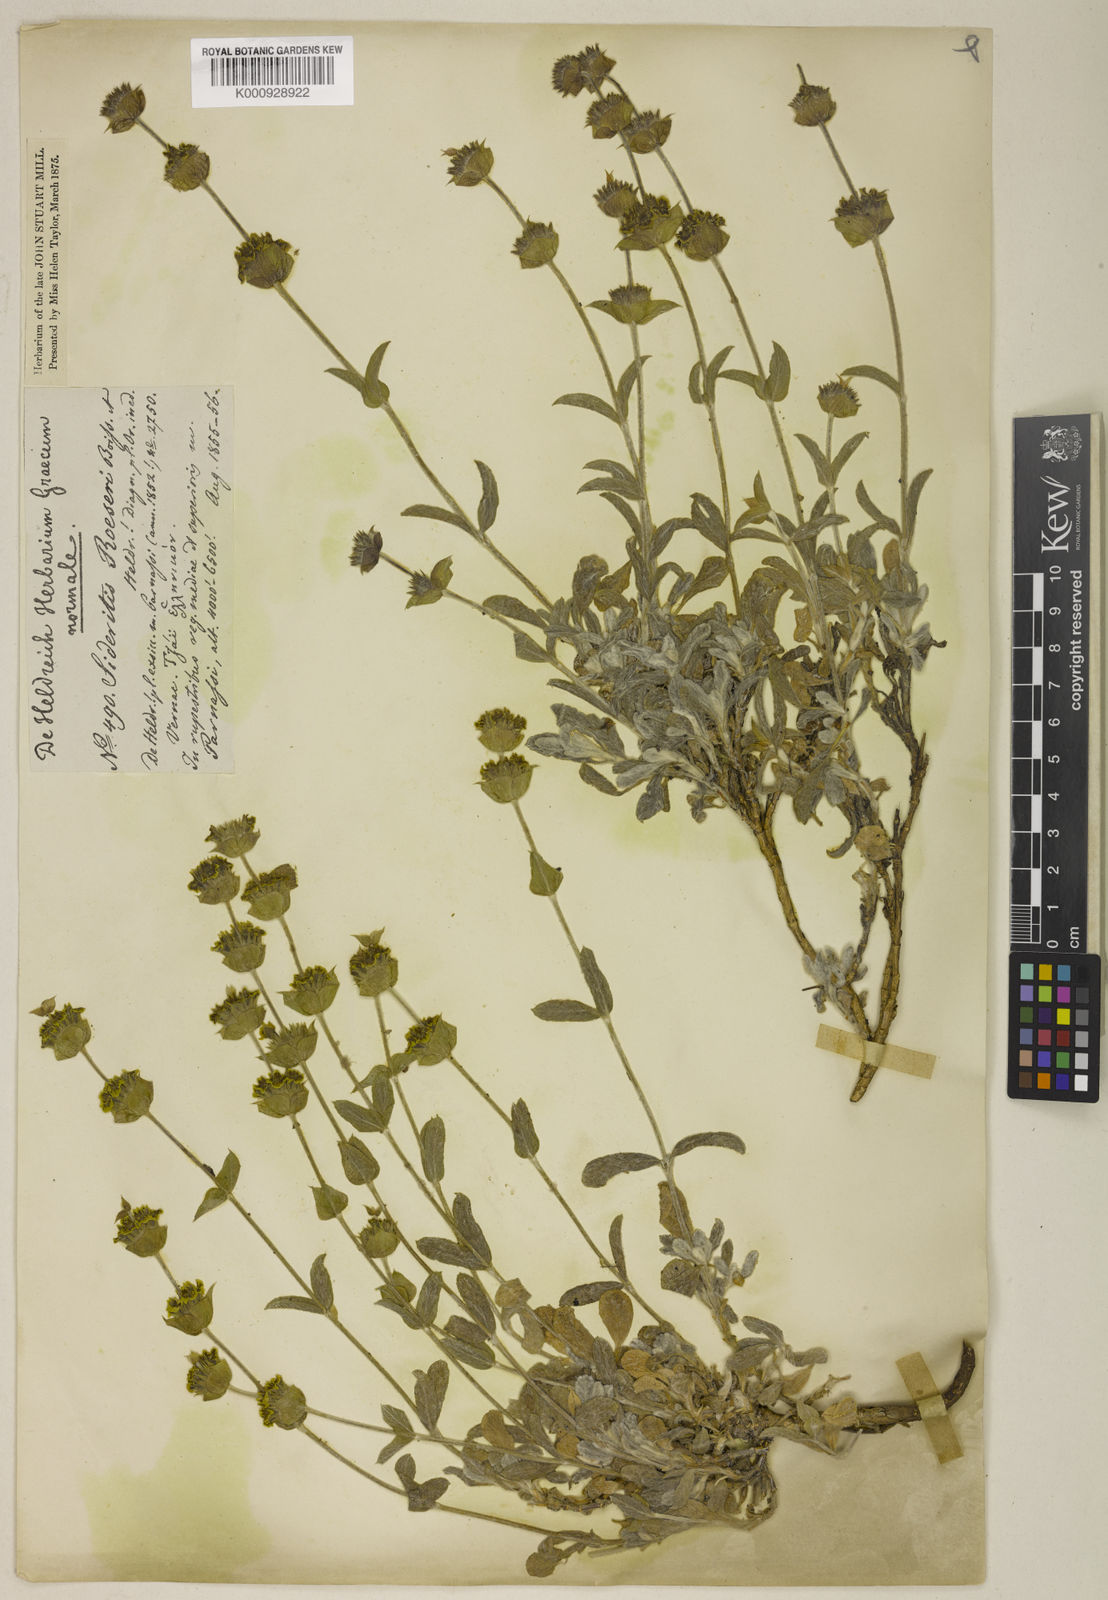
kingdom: Plantae
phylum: Tracheophyta
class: Magnoliopsida
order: Lamiales
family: Lamiaceae
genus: Sideritis
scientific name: Sideritis syriaca
